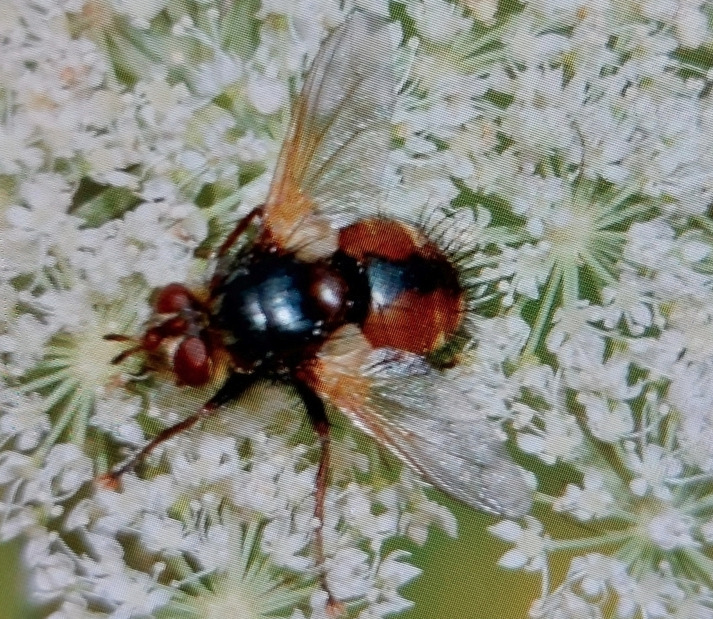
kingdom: Animalia
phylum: Arthropoda
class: Insecta
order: Diptera
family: Tachinidae
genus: Tachina
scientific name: Tachina fera
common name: Mellemfluen oskar
